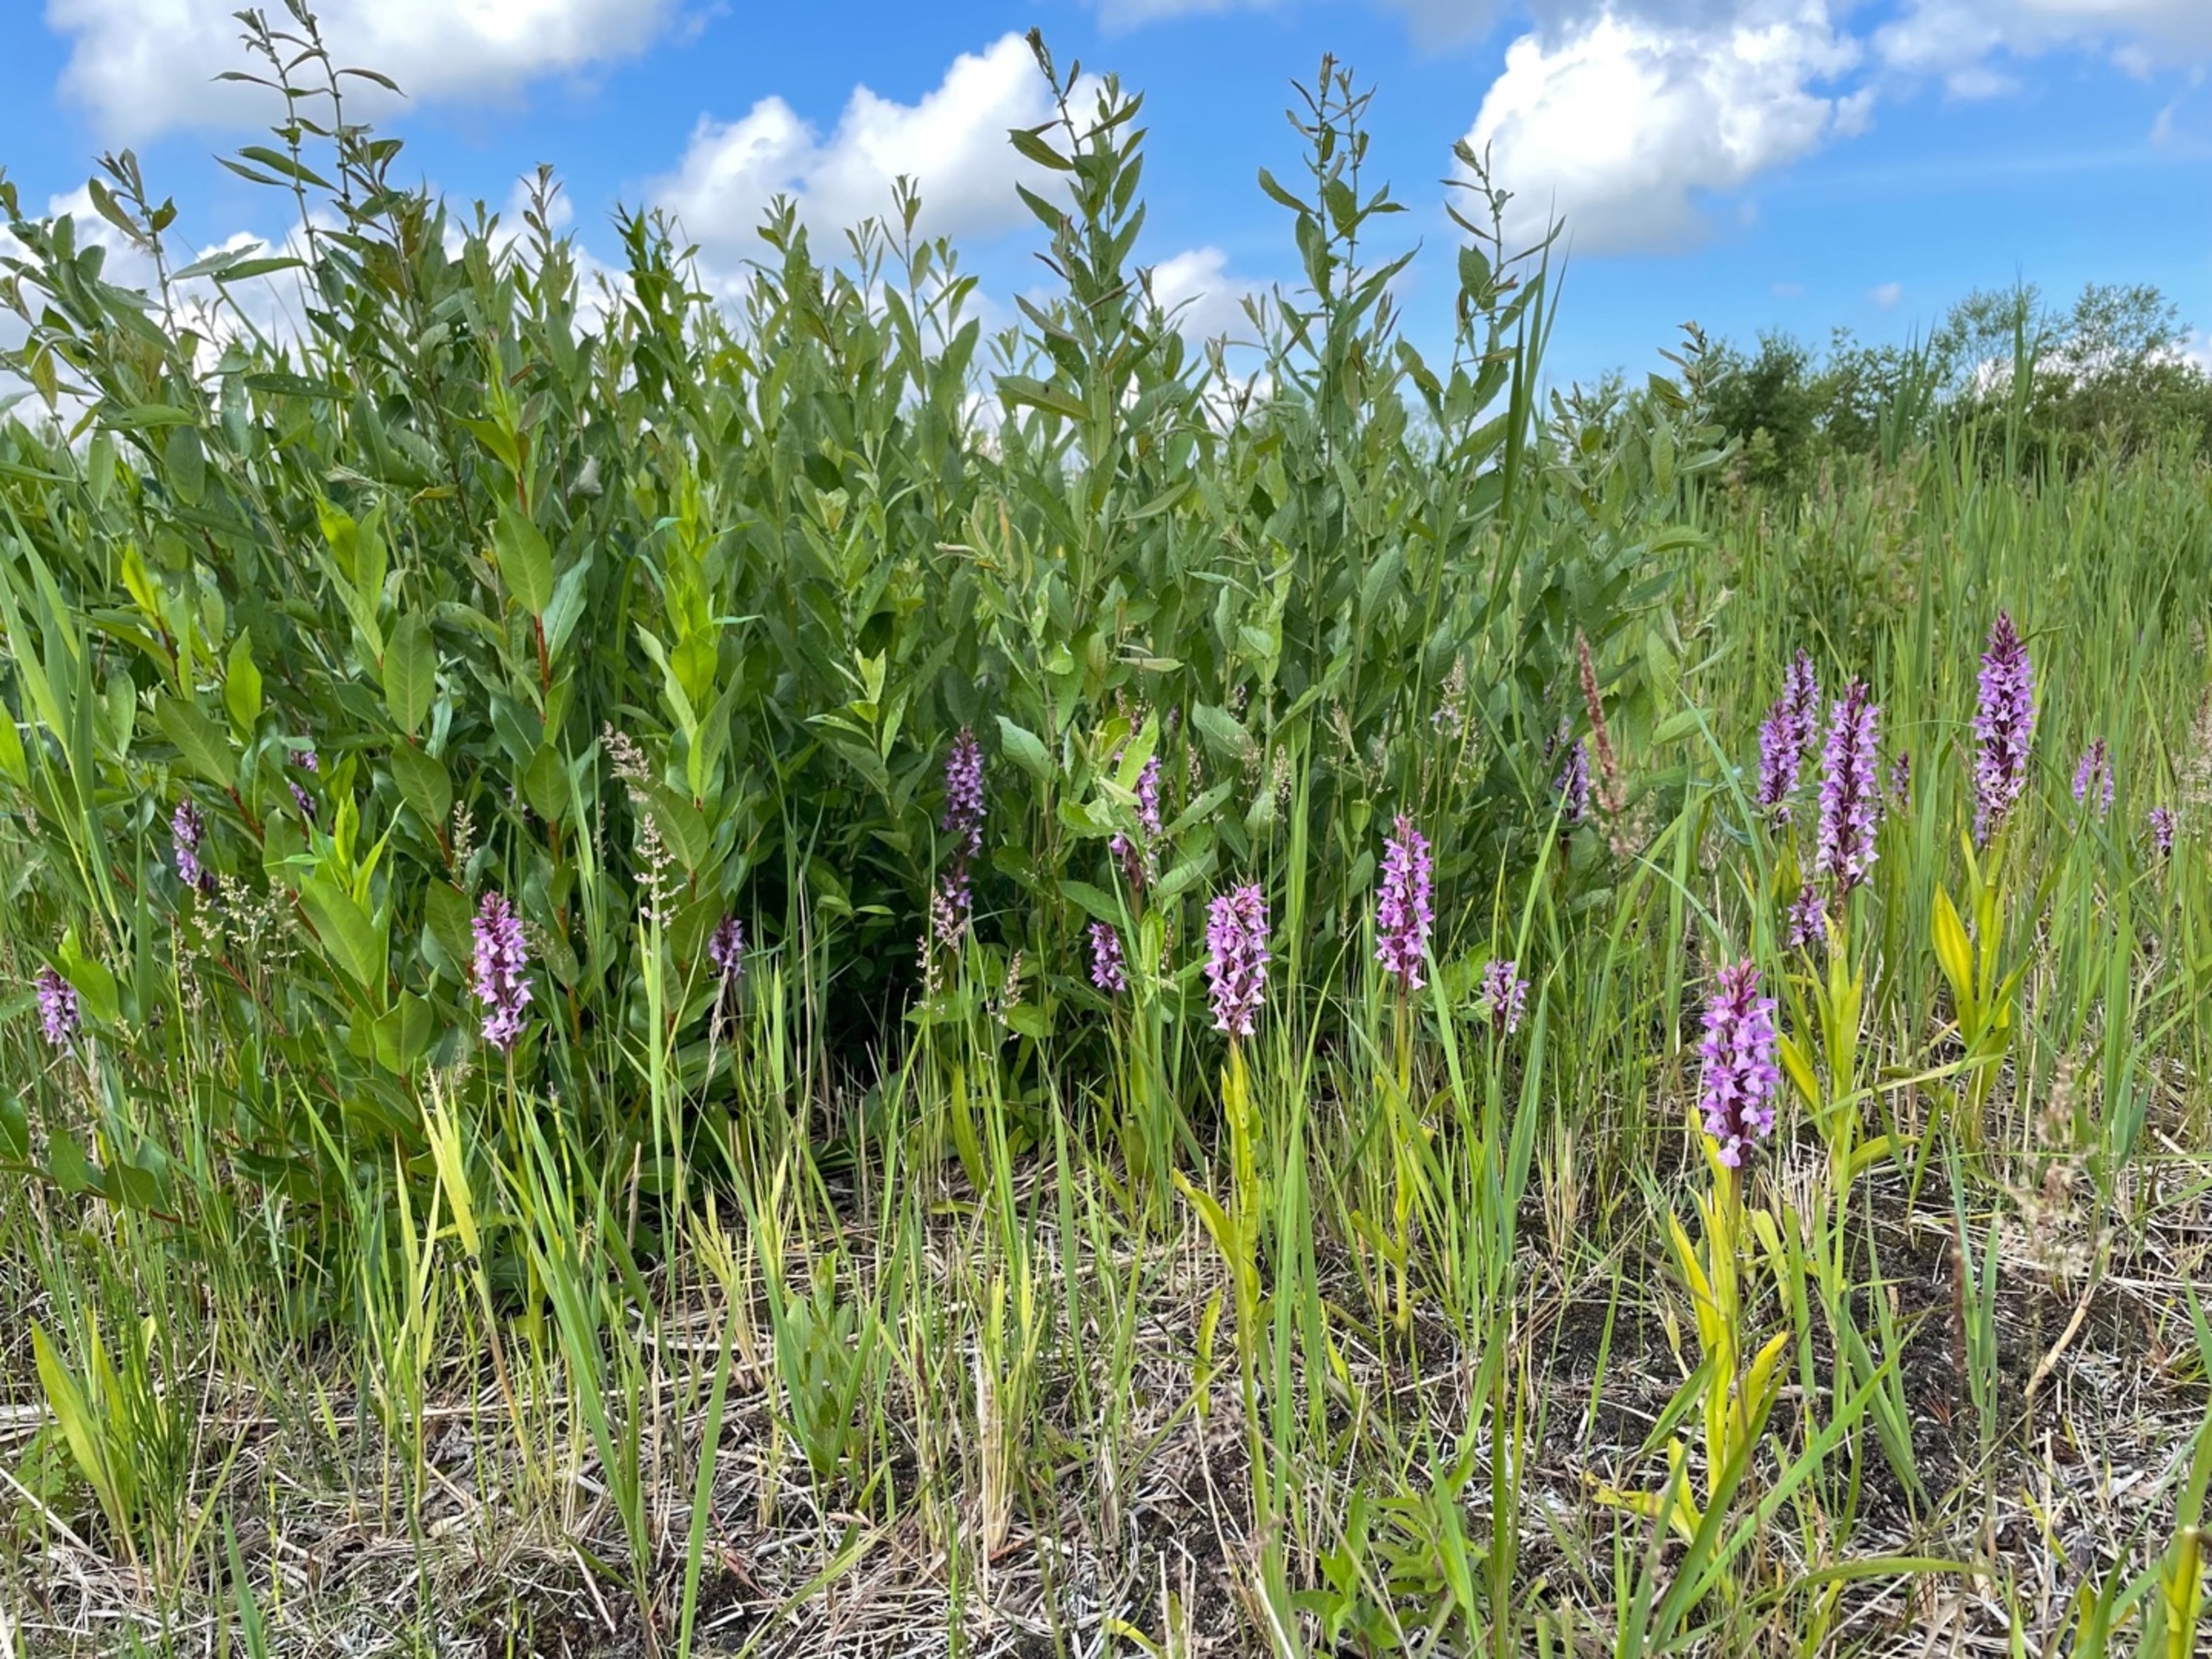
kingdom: Plantae
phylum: Tracheophyta
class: Liliopsida
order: Asparagales
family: Orchidaceae
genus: Dactylorhiza
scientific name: Dactylorhiza majalis
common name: Priklæbet gøgeurt
